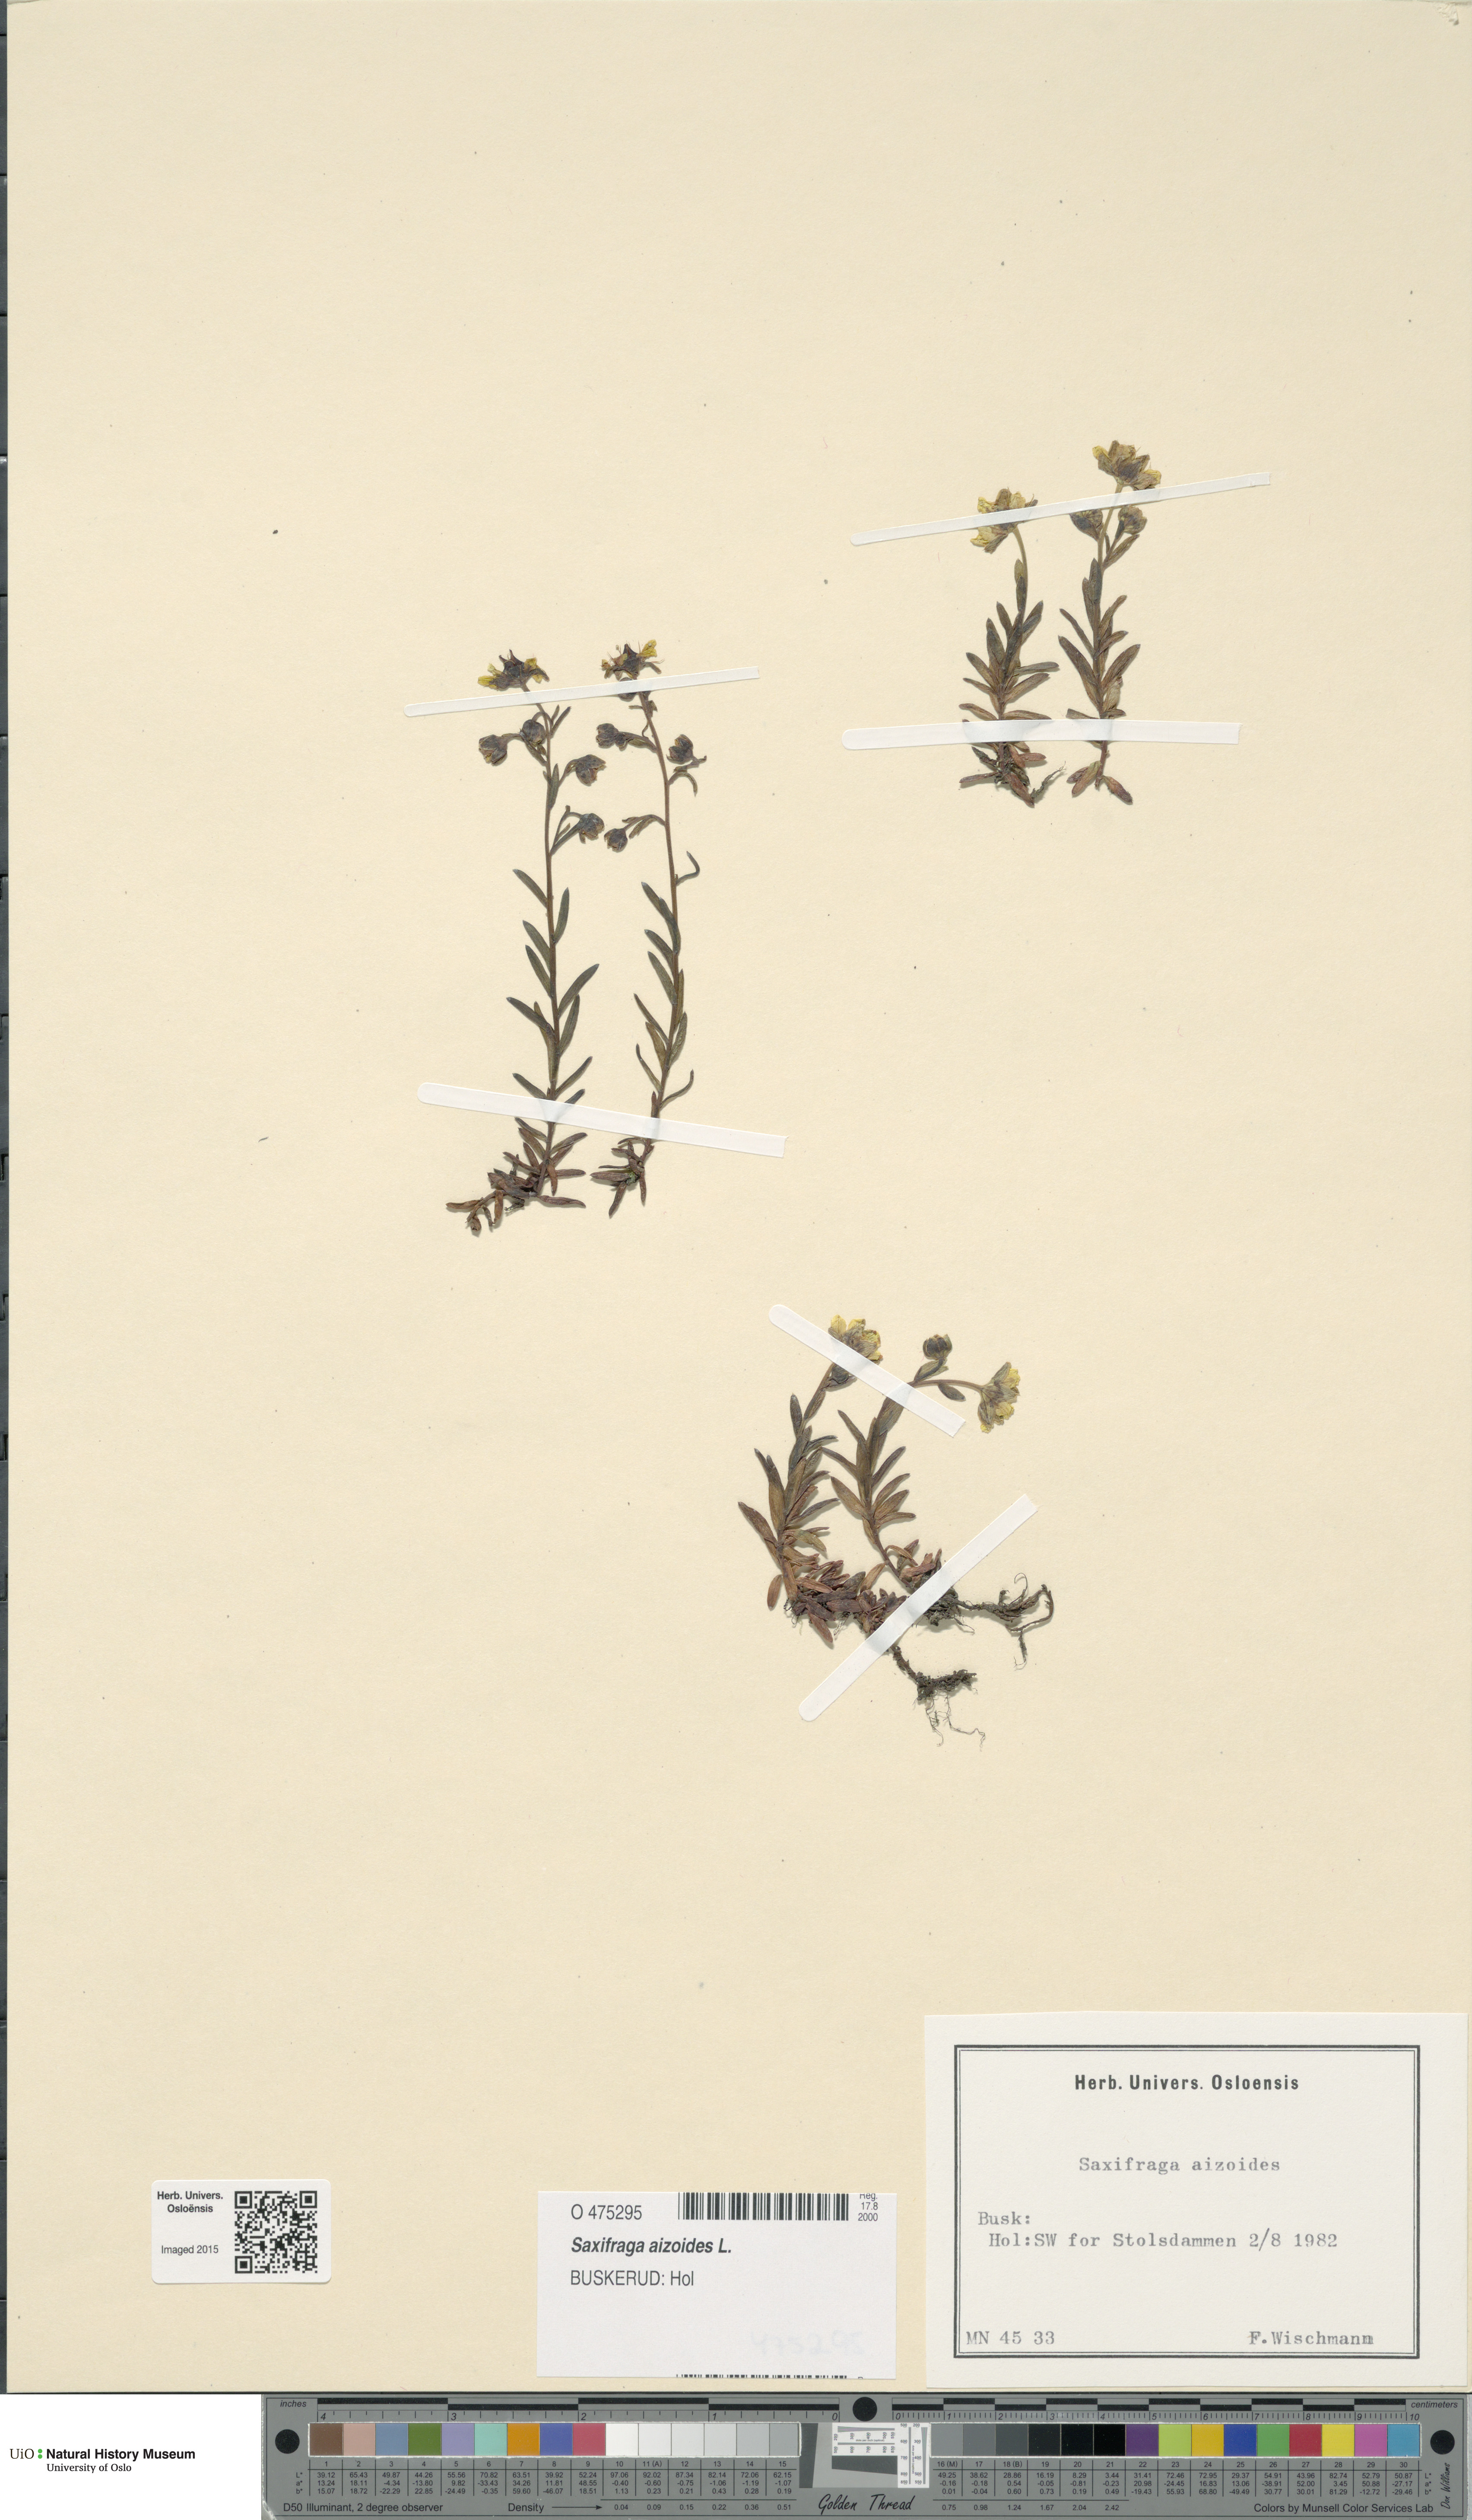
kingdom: Plantae
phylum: Tracheophyta
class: Magnoliopsida
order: Saxifragales
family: Saxifragaceae
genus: Saxifraga
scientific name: Saxifraga aizoides
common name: Yellow mountain saxifrage
